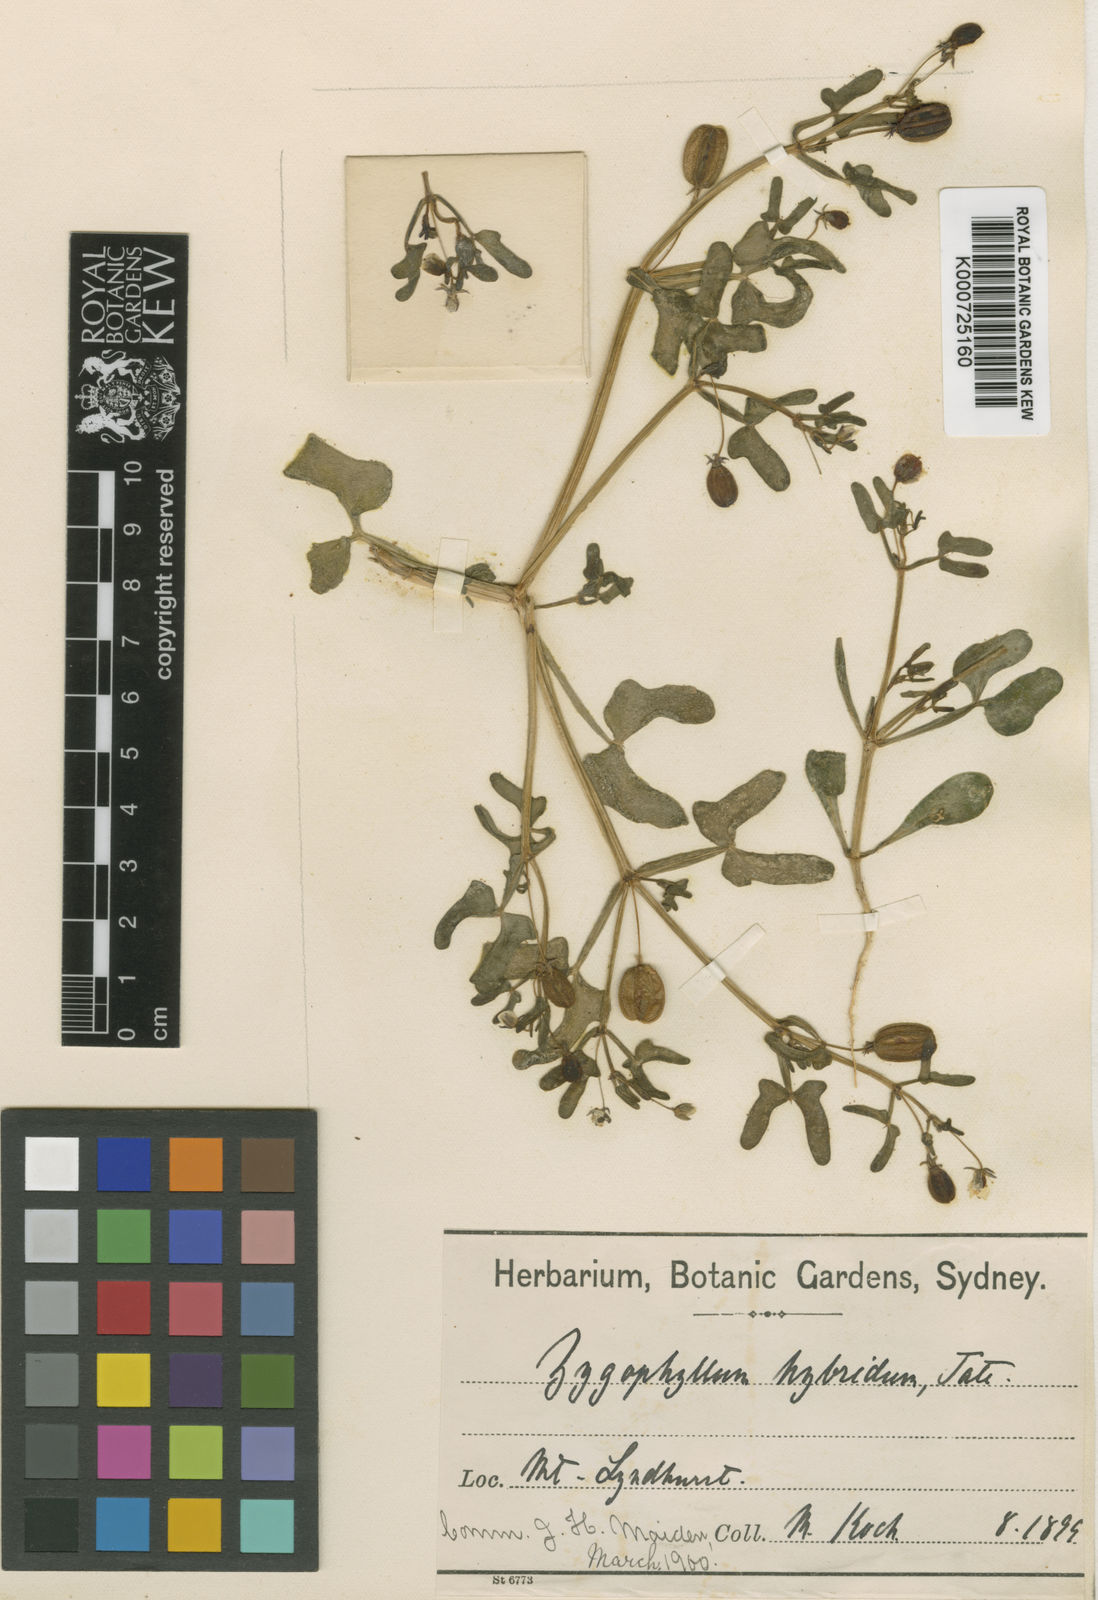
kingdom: Plantae
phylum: Tracheophyta
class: Magnoliopsida
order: Zygophyllales
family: Zygophyllaceae
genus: Roepera
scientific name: Roepera hybrida
